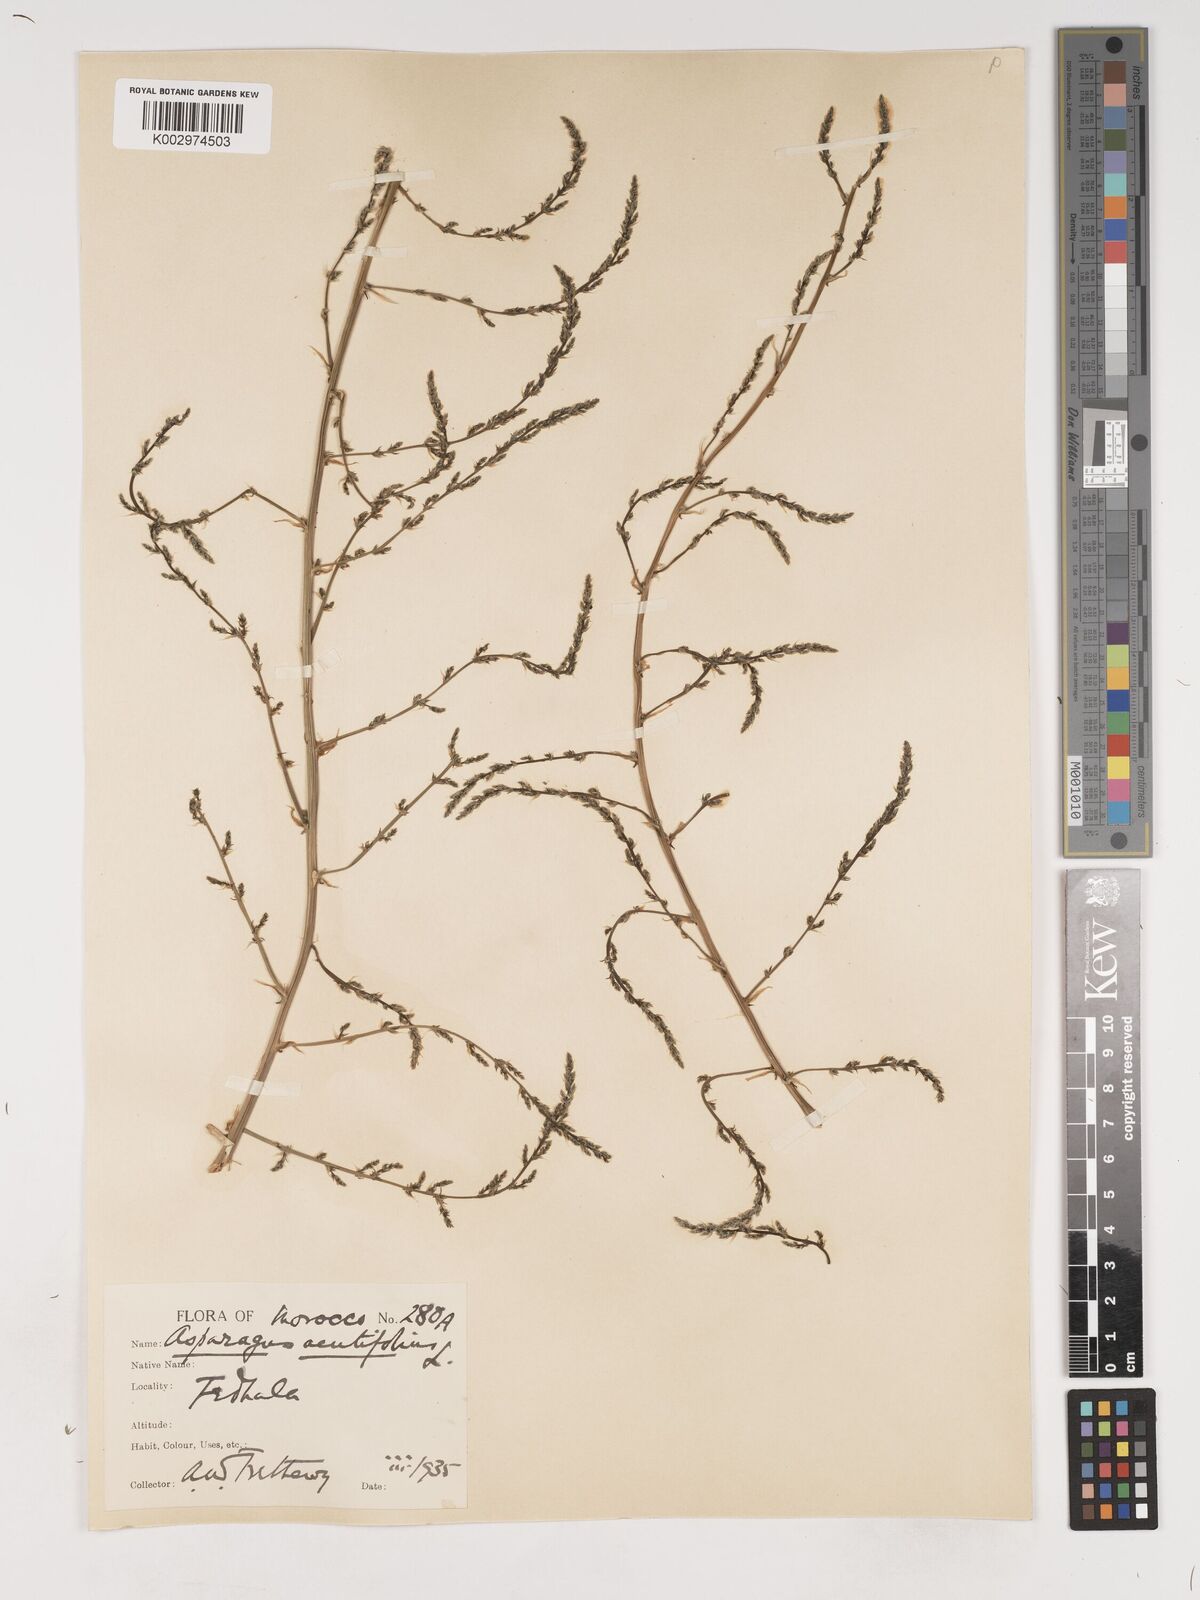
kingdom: Plantae
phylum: Tracheophyta
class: Liliopsida
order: Asparagales
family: Asparagaceae
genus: Asparagus
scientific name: Asparagus acutifolius
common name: Wild asparagus
